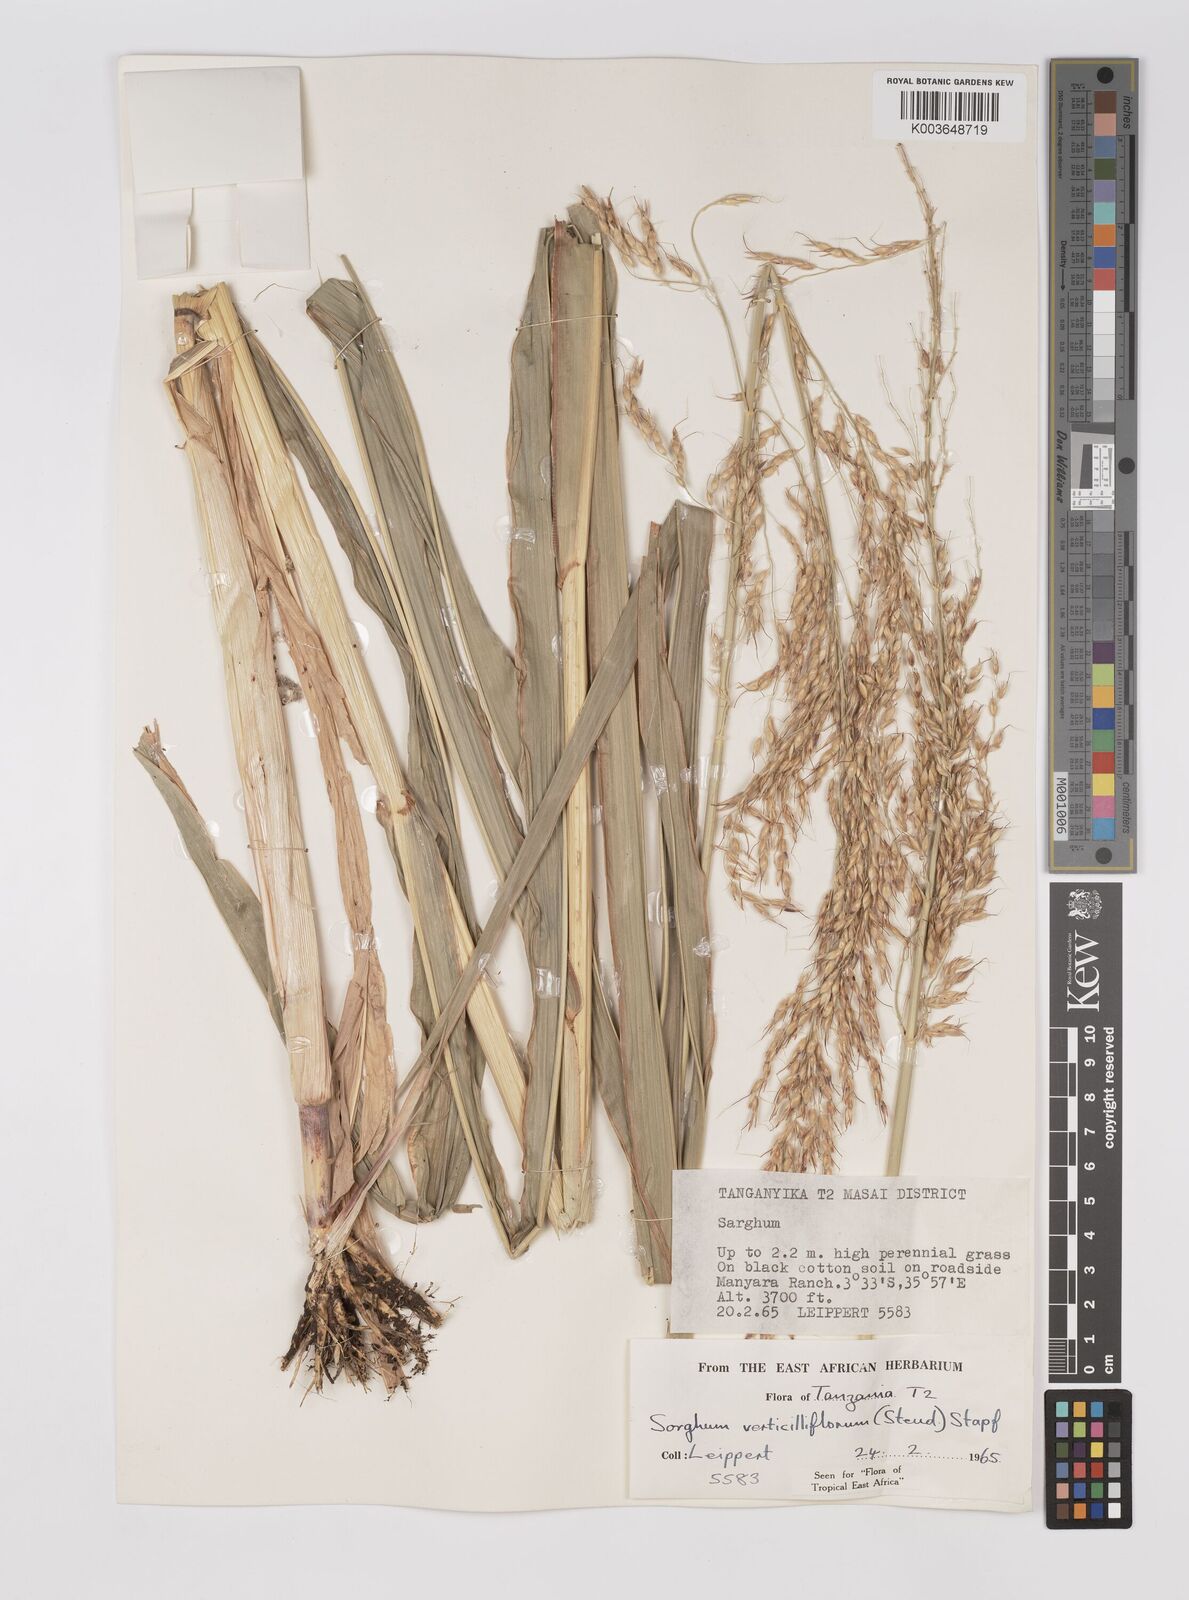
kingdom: Plantae
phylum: Tracheophyta
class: Liliopsida
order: Poales
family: Poaceae
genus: Sorghum
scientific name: Sorghum arundinaceum
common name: Sorghum
